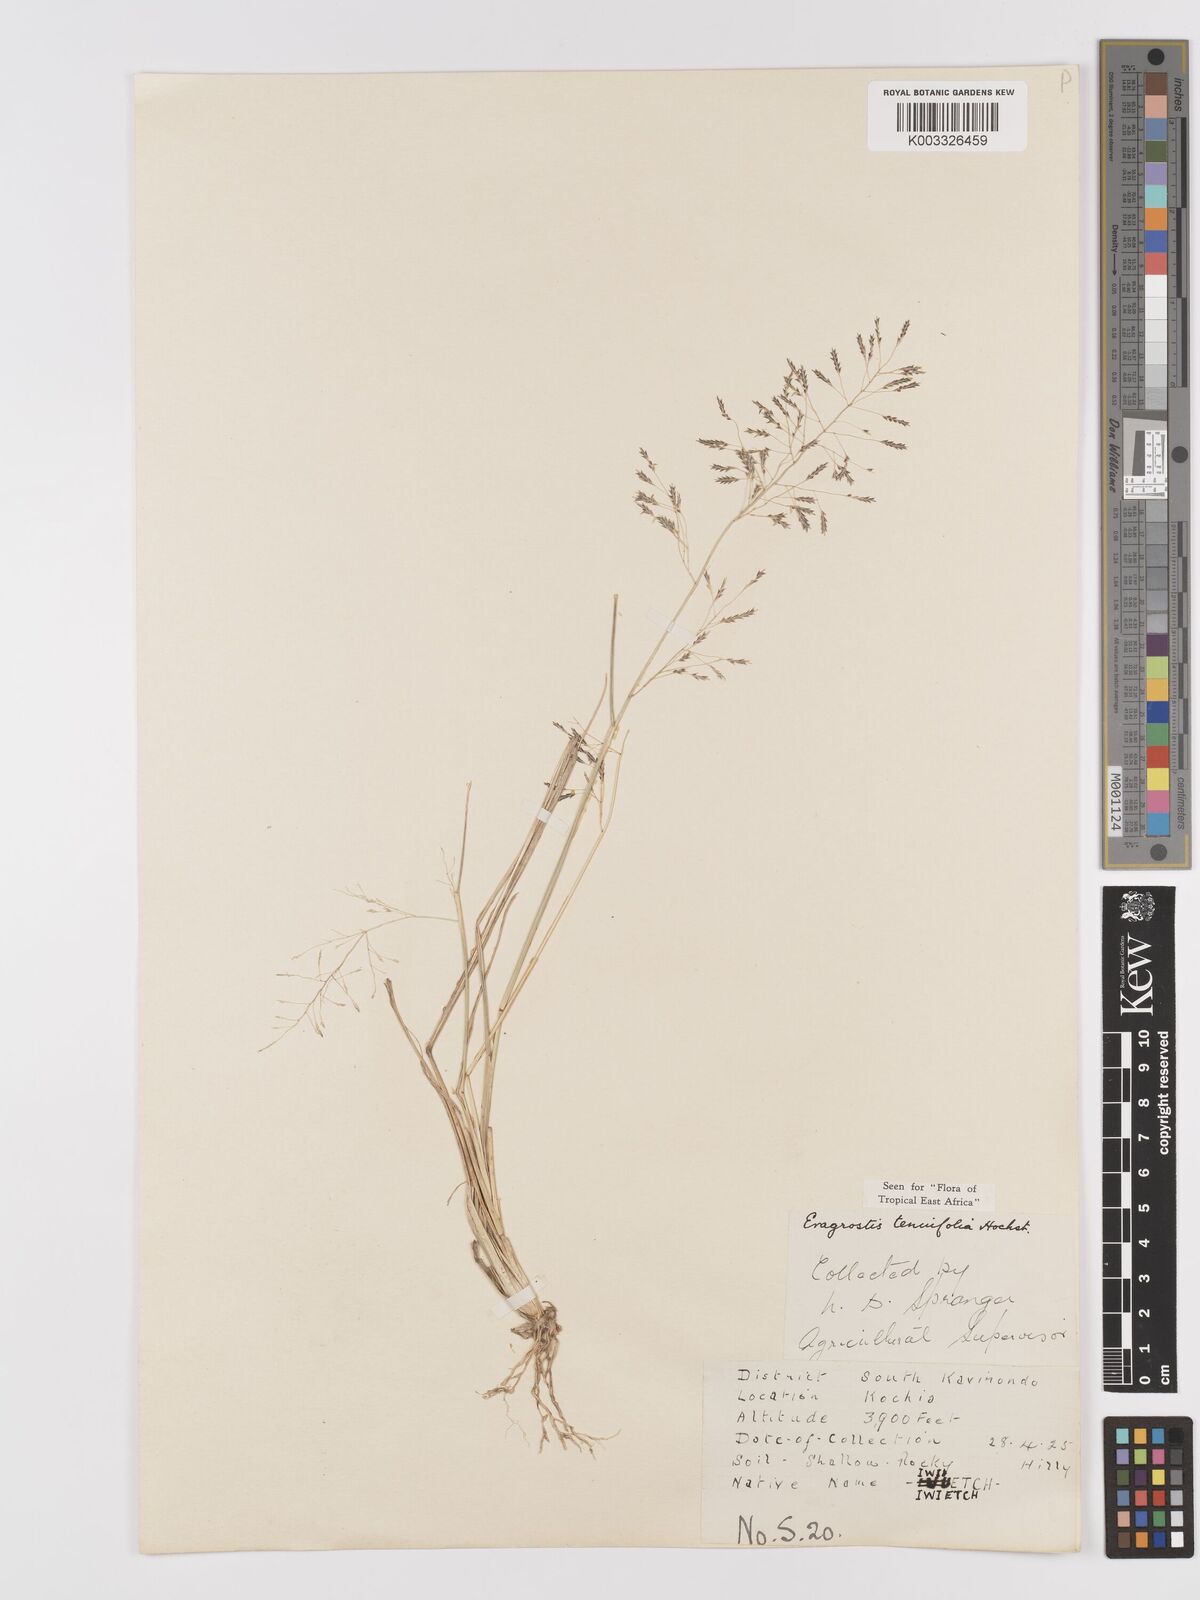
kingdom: Plantae
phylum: Tracheophyta
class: Liliopsida
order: Poales
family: Poaceae
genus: Eragrostis
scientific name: Eragrostis tenuifolia
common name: Elastic grass
